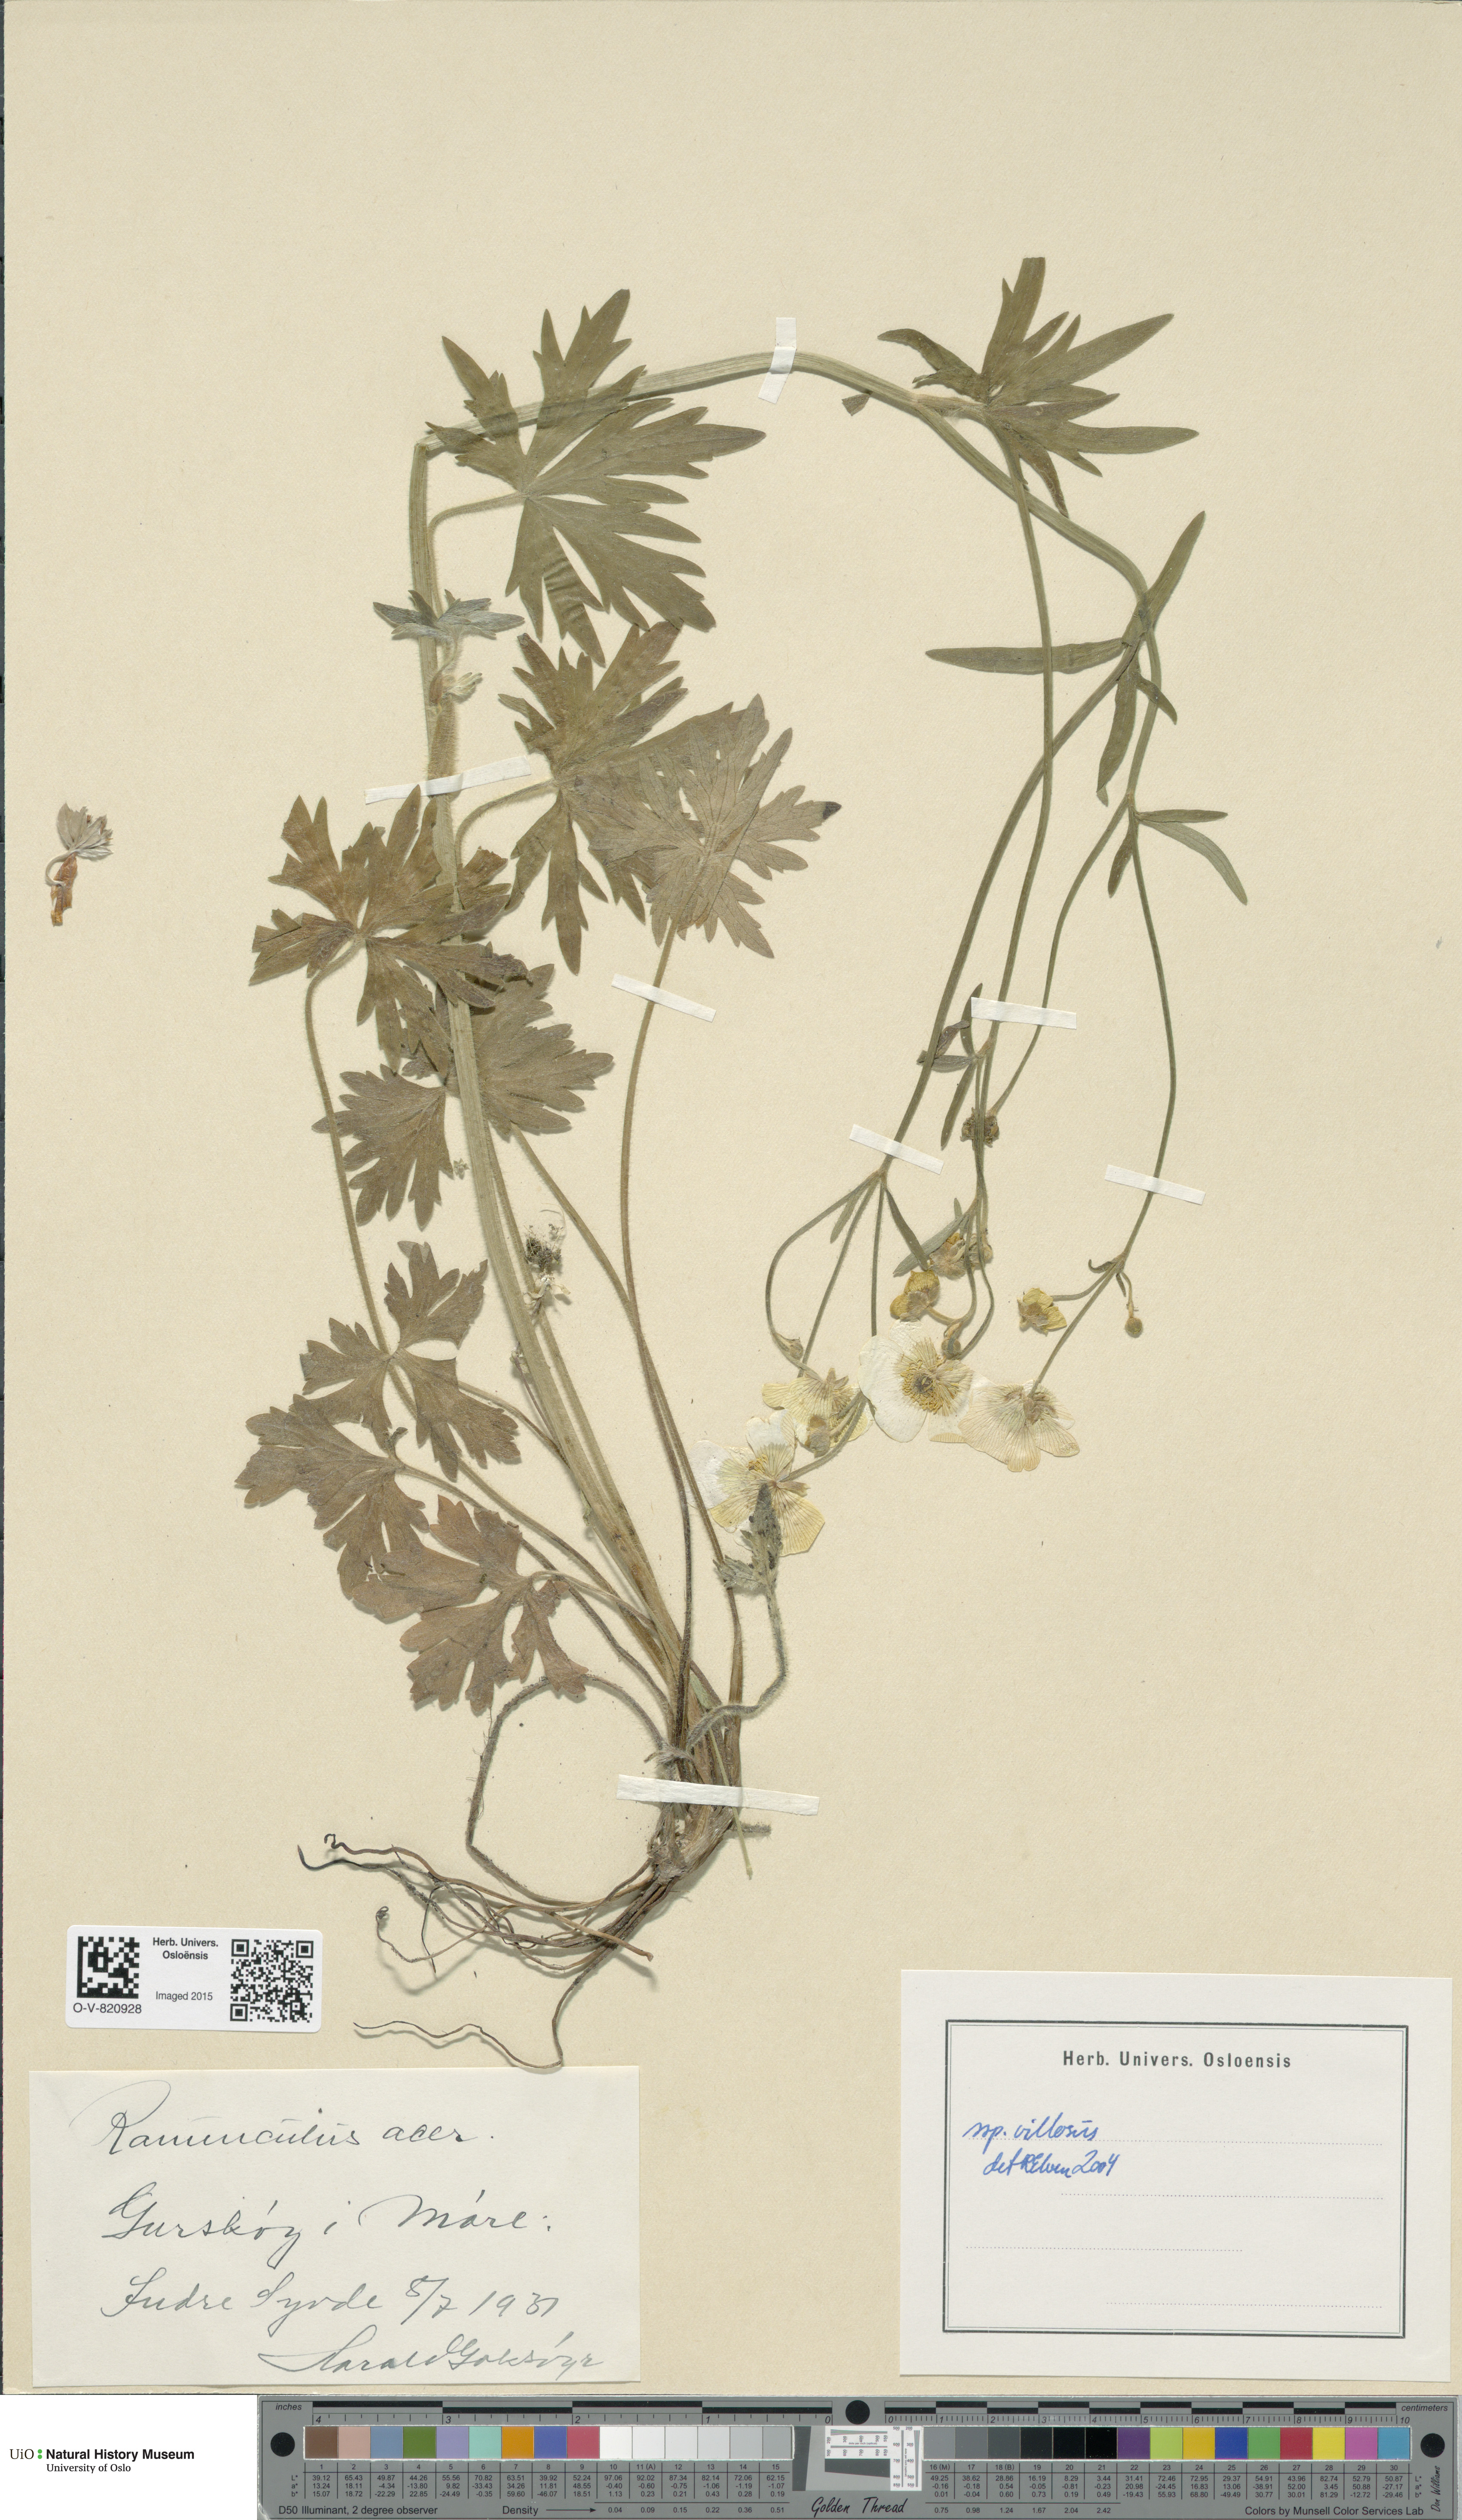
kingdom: Plantae
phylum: Tracheophyta
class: Magnoliopsida
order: Ranunculales
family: Ranunculaceae
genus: Ranunculus
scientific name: Ranunculus propinquus
